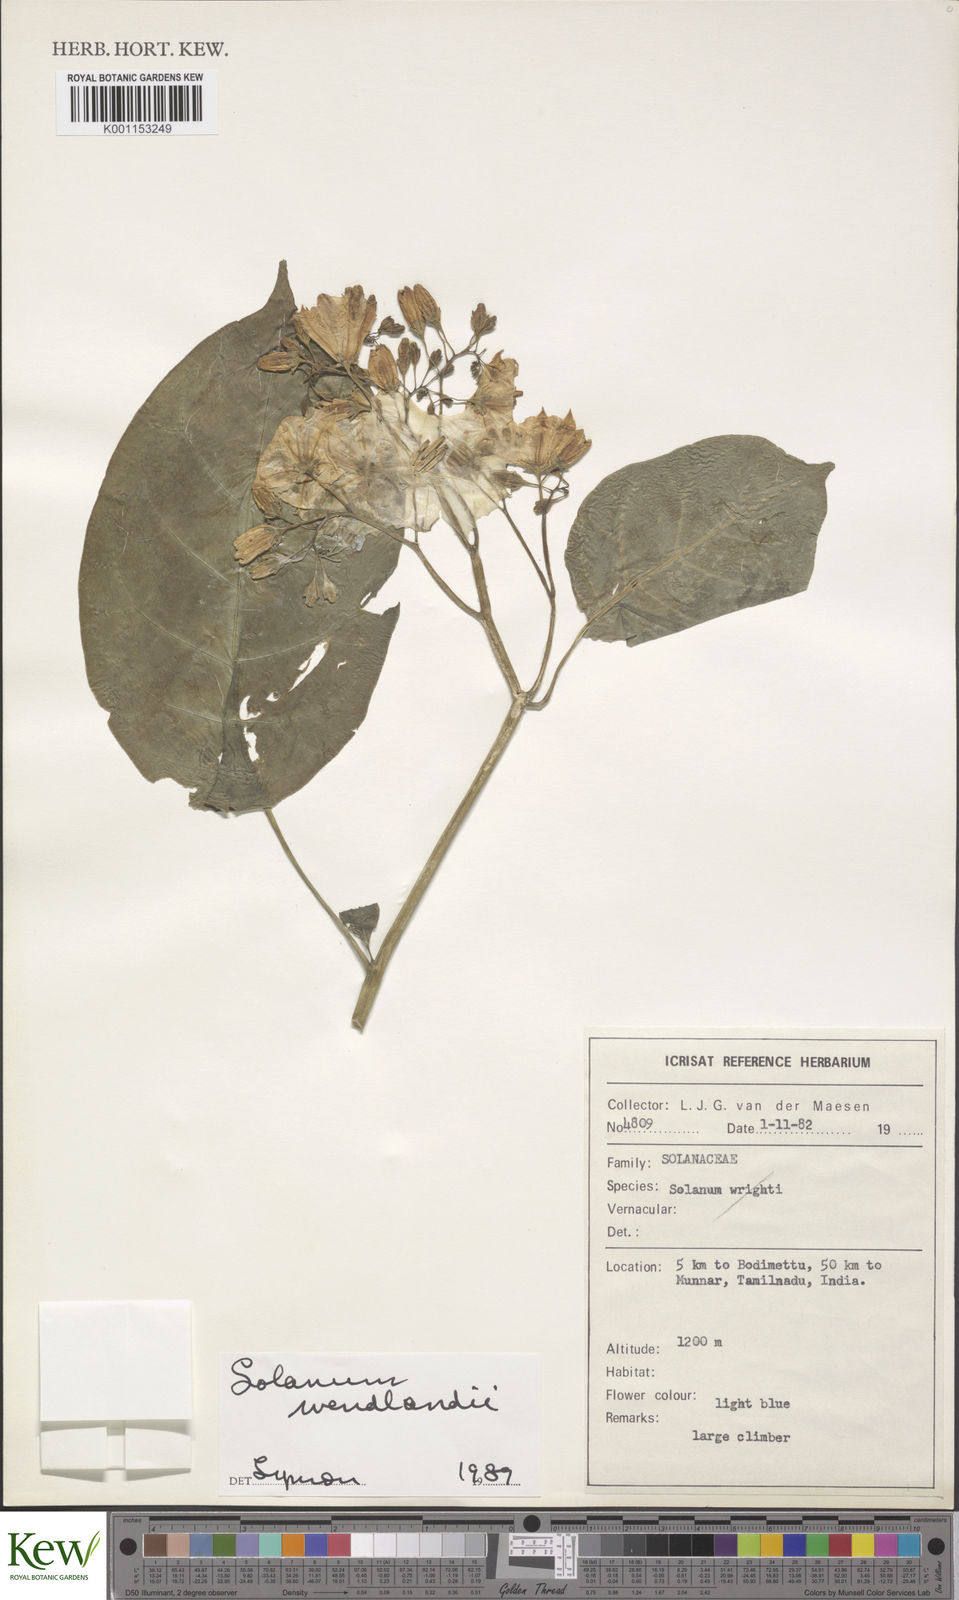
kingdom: Plantae
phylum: Tracheophyta
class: Magnoliopsida
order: Solanales
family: Solanaceae
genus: Solanum
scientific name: Solanum wendlandii
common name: Costa rican nightshade
